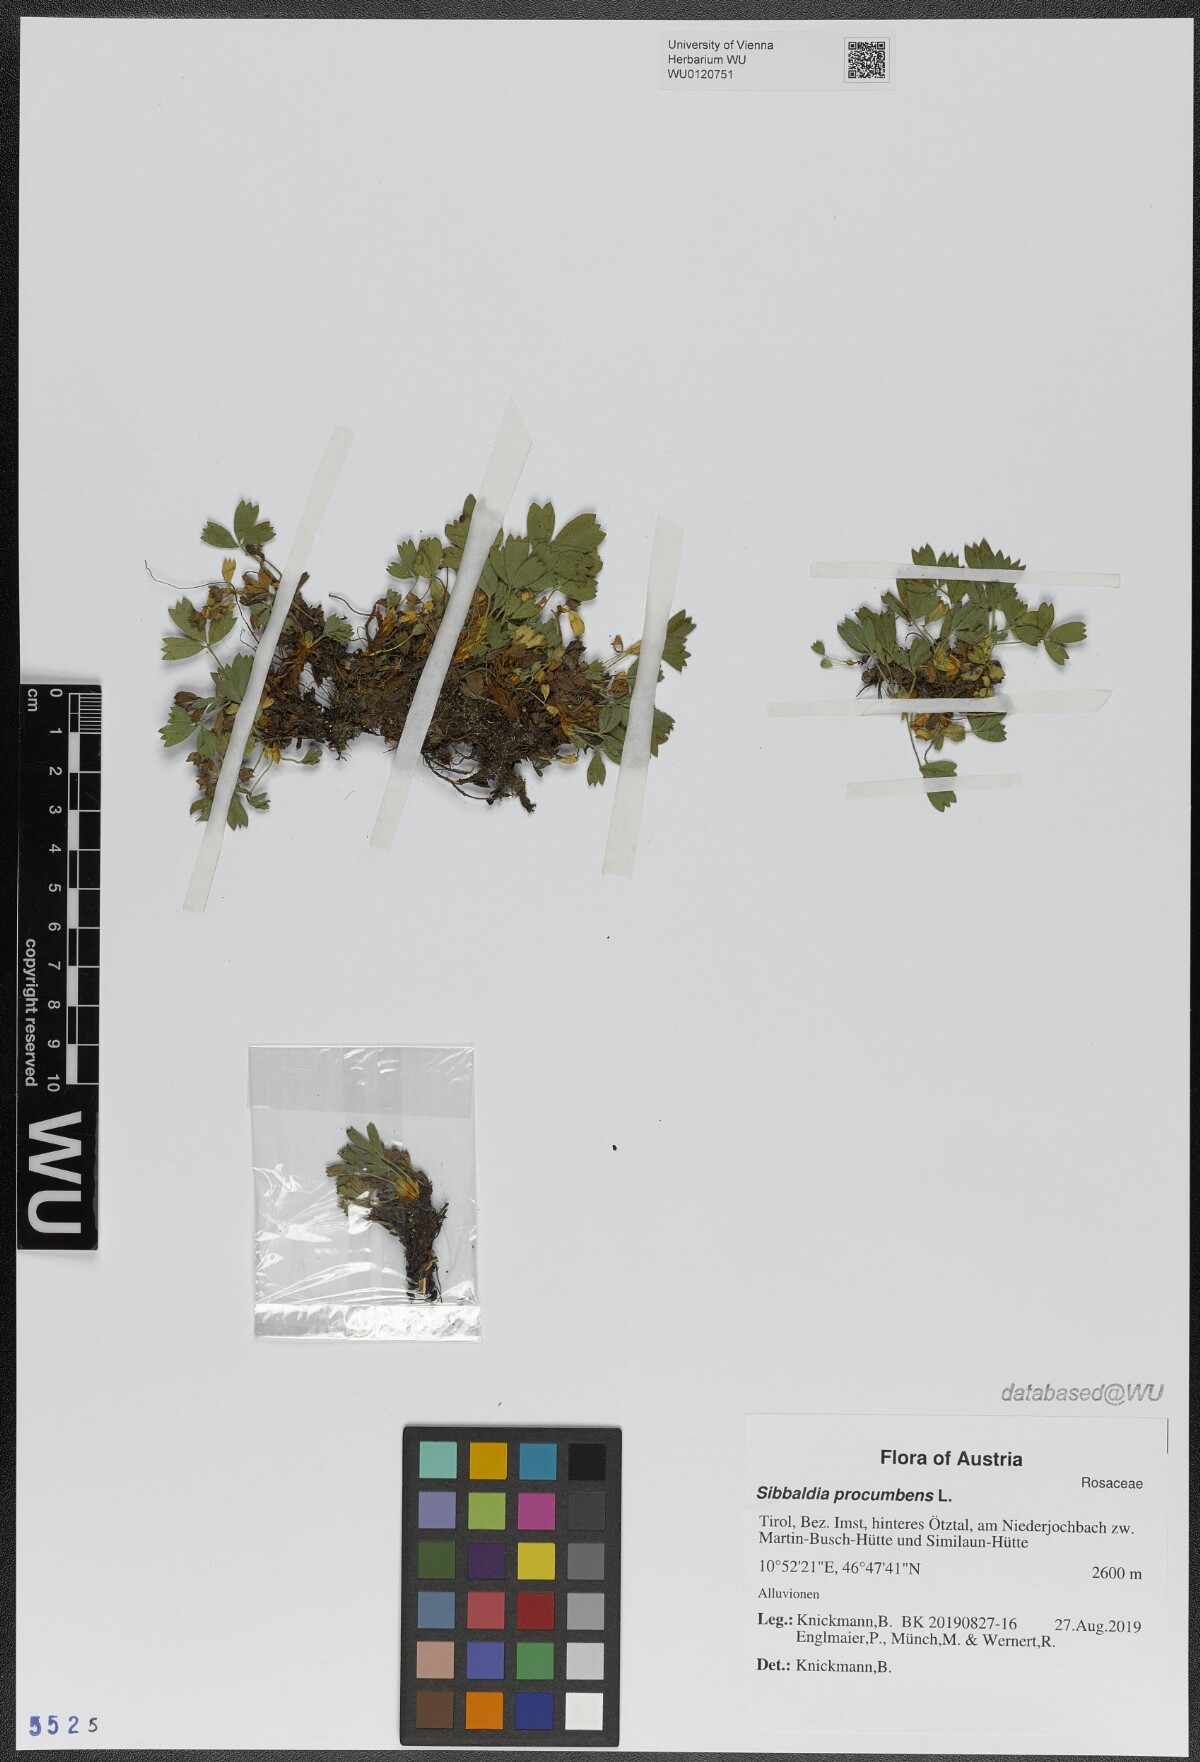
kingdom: Plantae
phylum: Tracheophyta
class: Magnoliopsida
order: Rosales
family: Rosaceae
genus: Sibbaldia
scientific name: Sibbaldia procumbens
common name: Creeping sibbaldia
